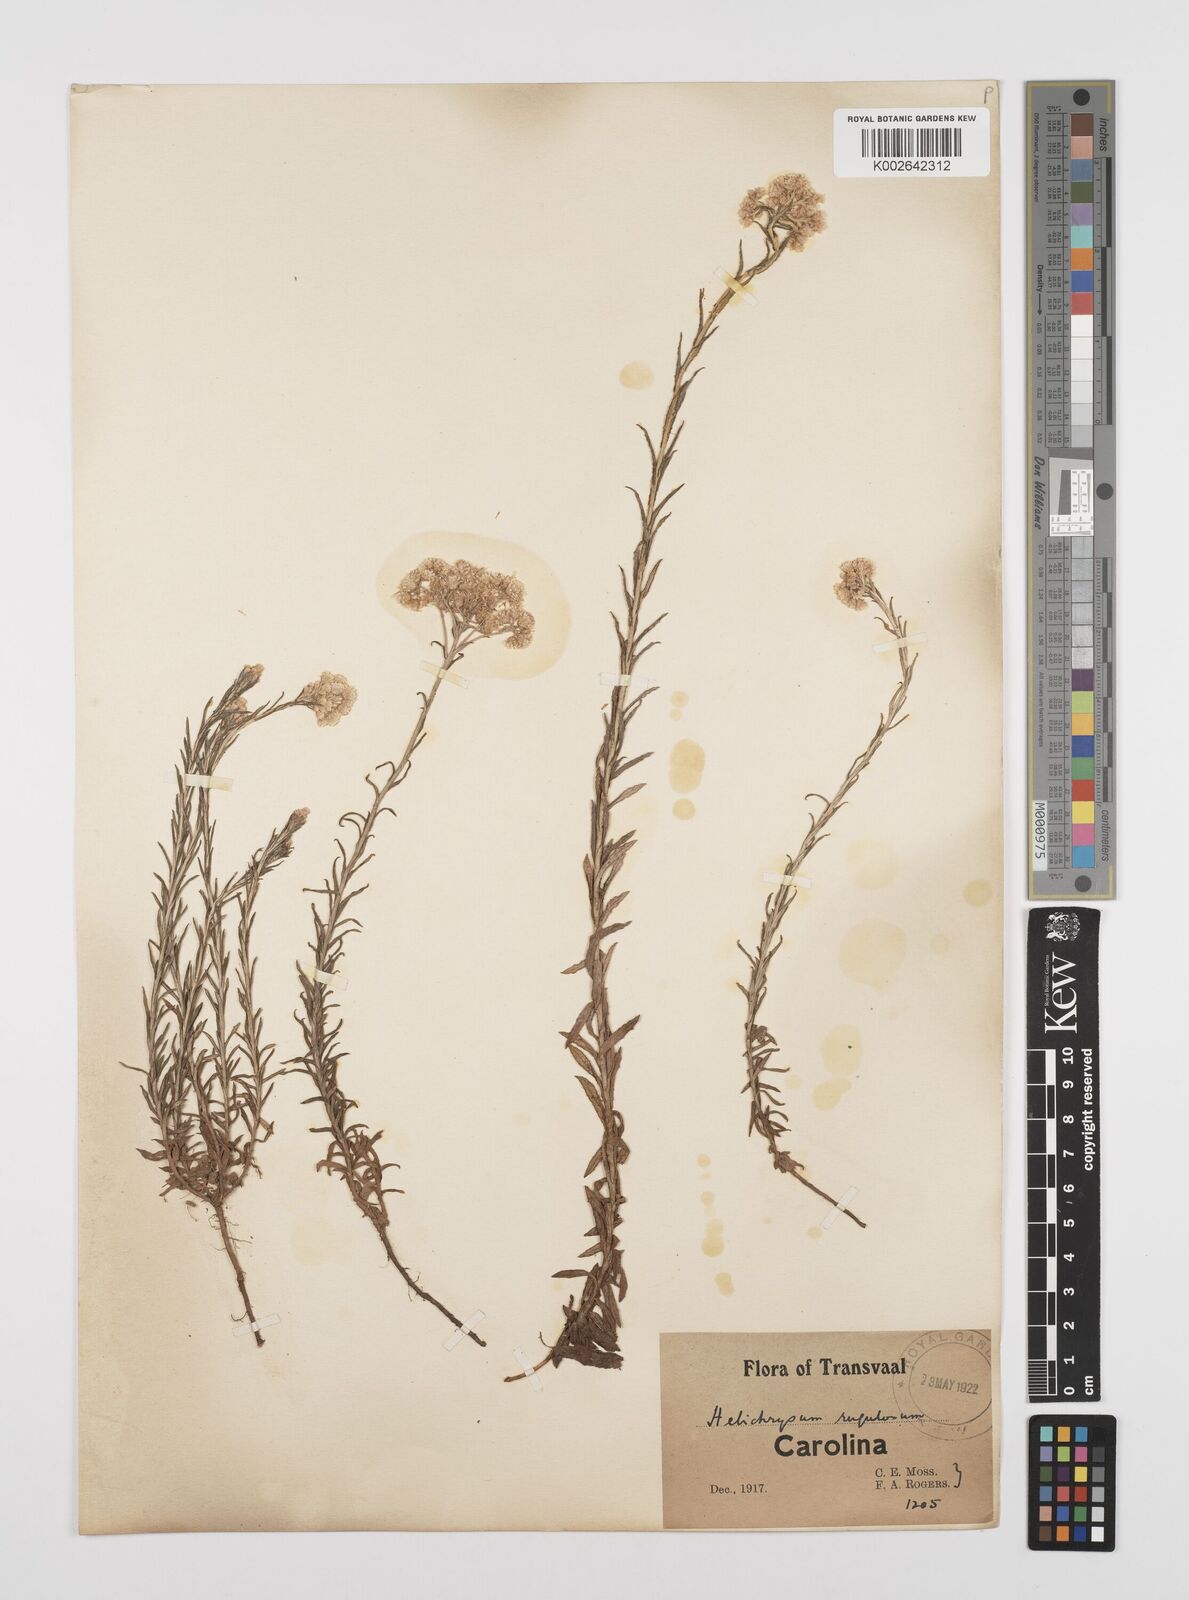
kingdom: Plantae
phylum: Tracheophyta
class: Magnoliopsida
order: Asterales
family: Asteraceae
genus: Helichrysum
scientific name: Helichrysum rugulosum
